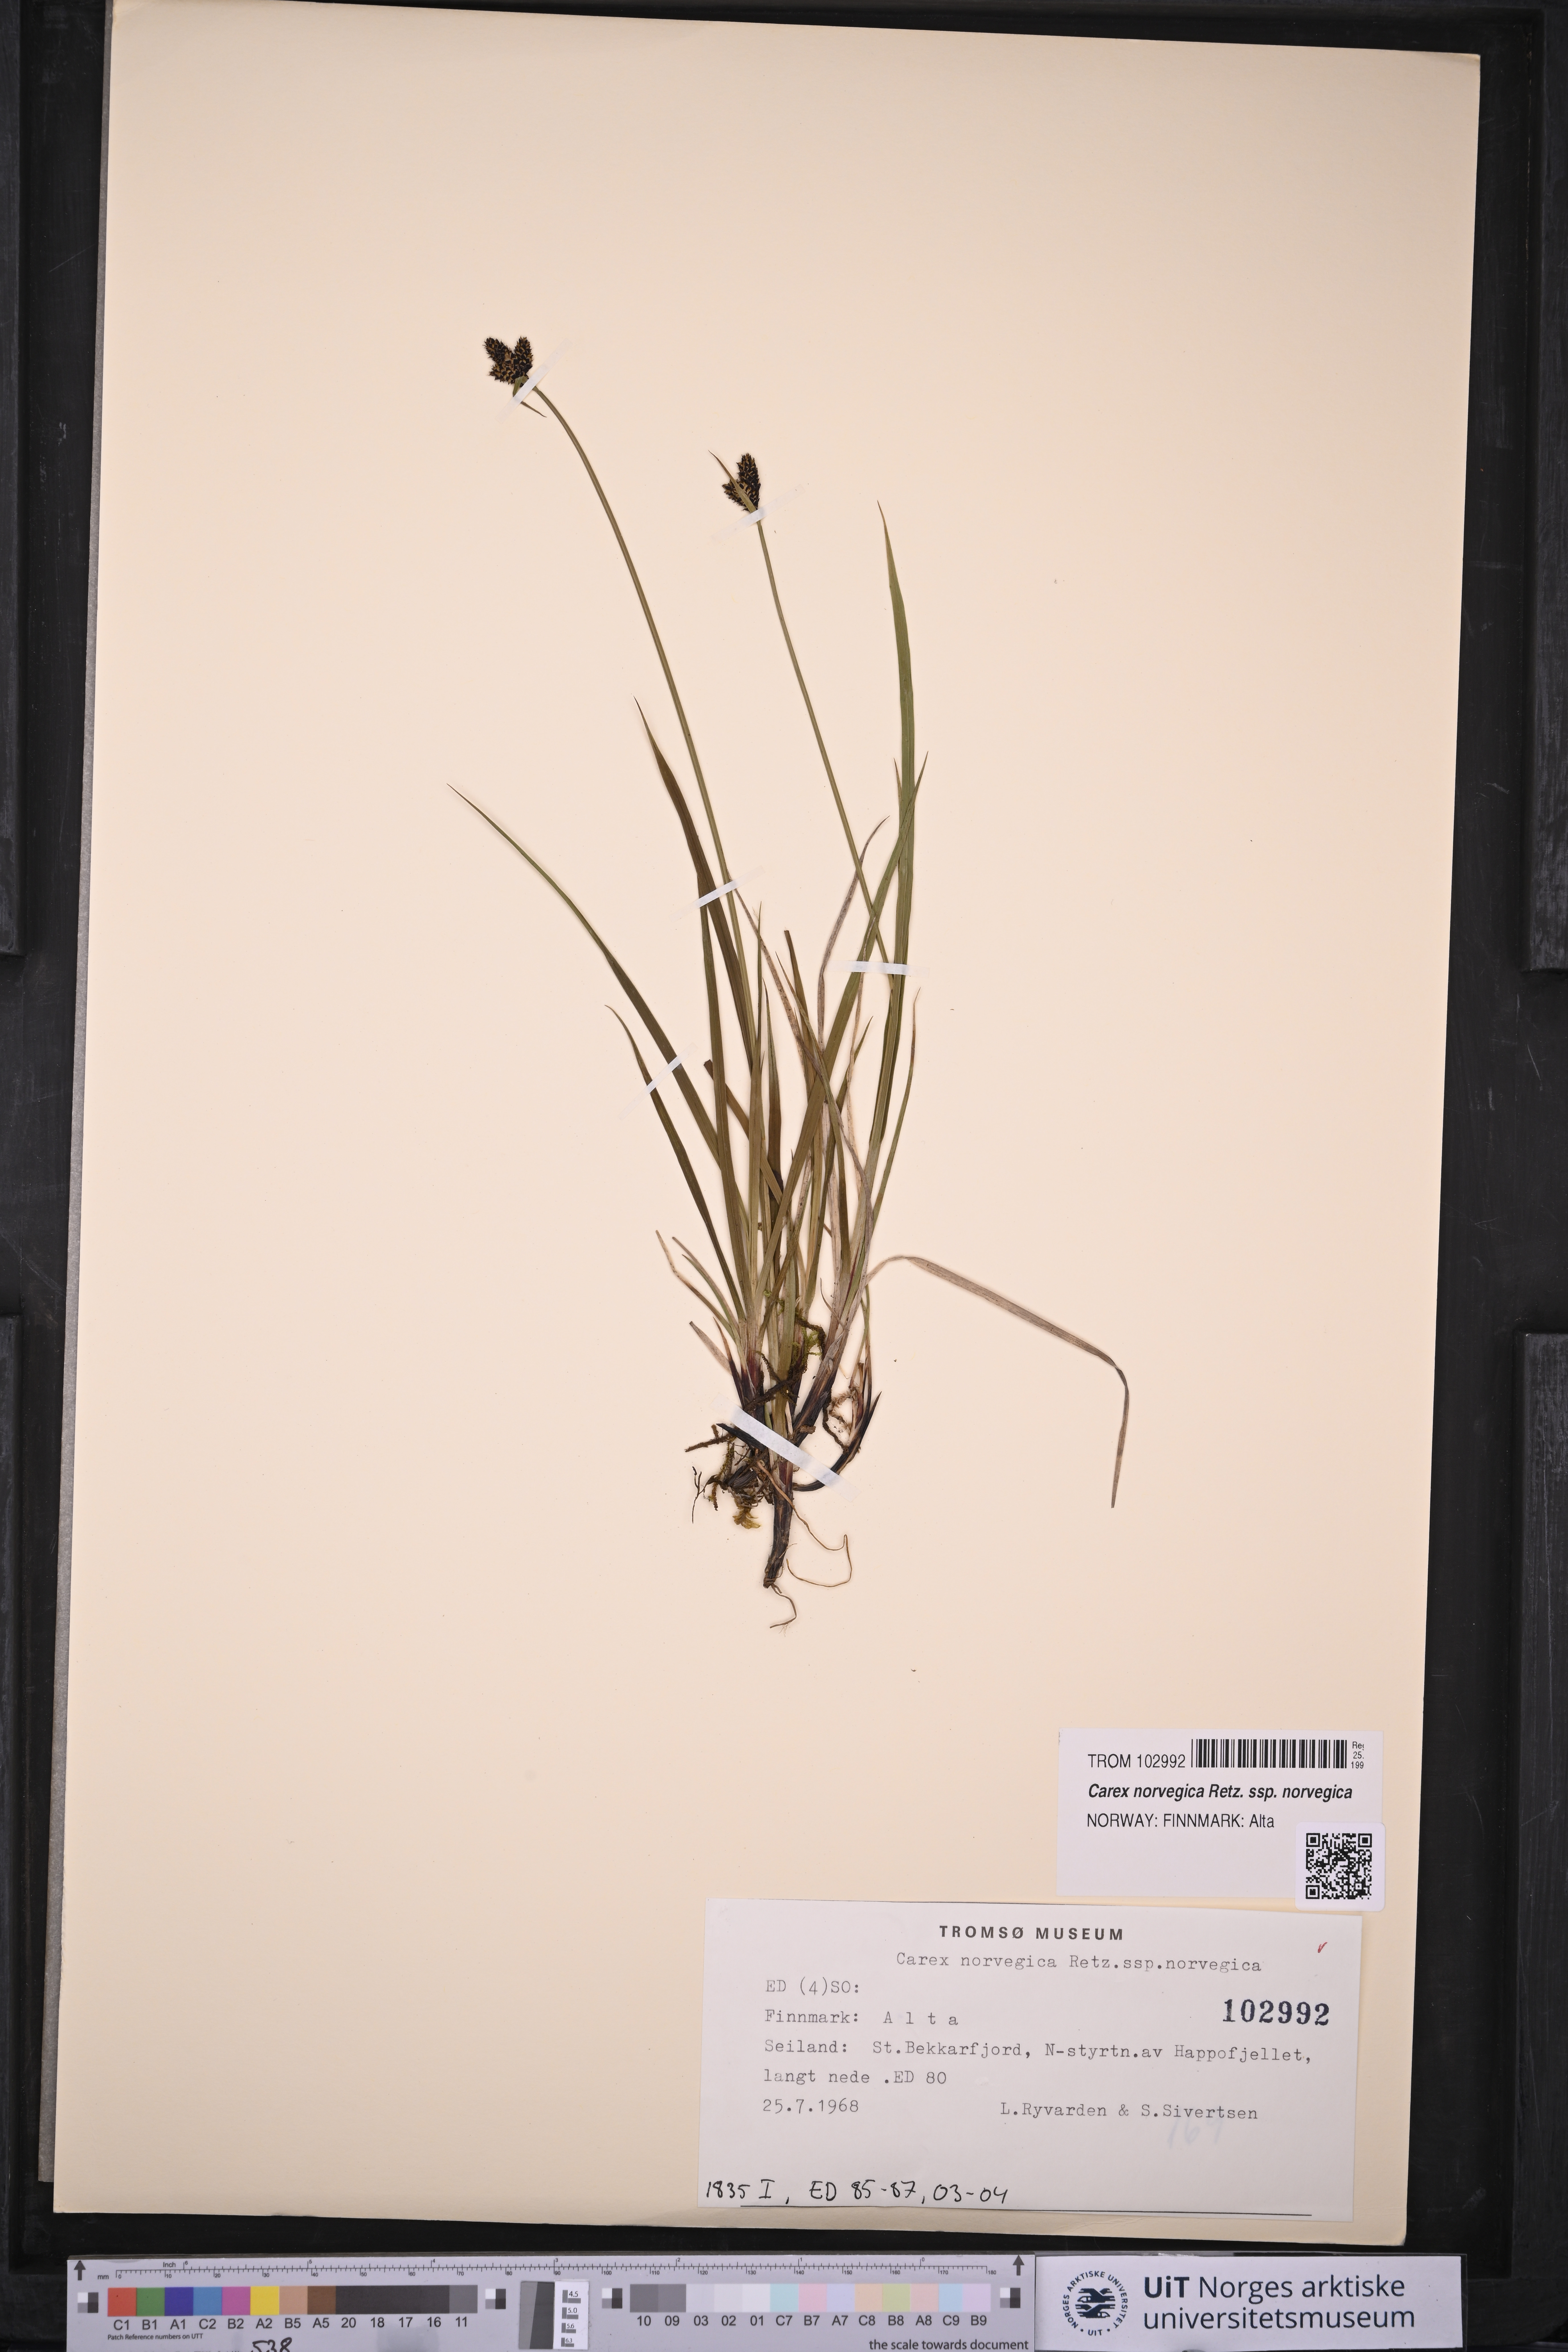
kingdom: Plantae
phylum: Tracheophyta
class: Liliopsida
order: Poales
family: Cyperaceae
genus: Carex
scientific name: Carex norvegica
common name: Close-headed alpine-sedge
